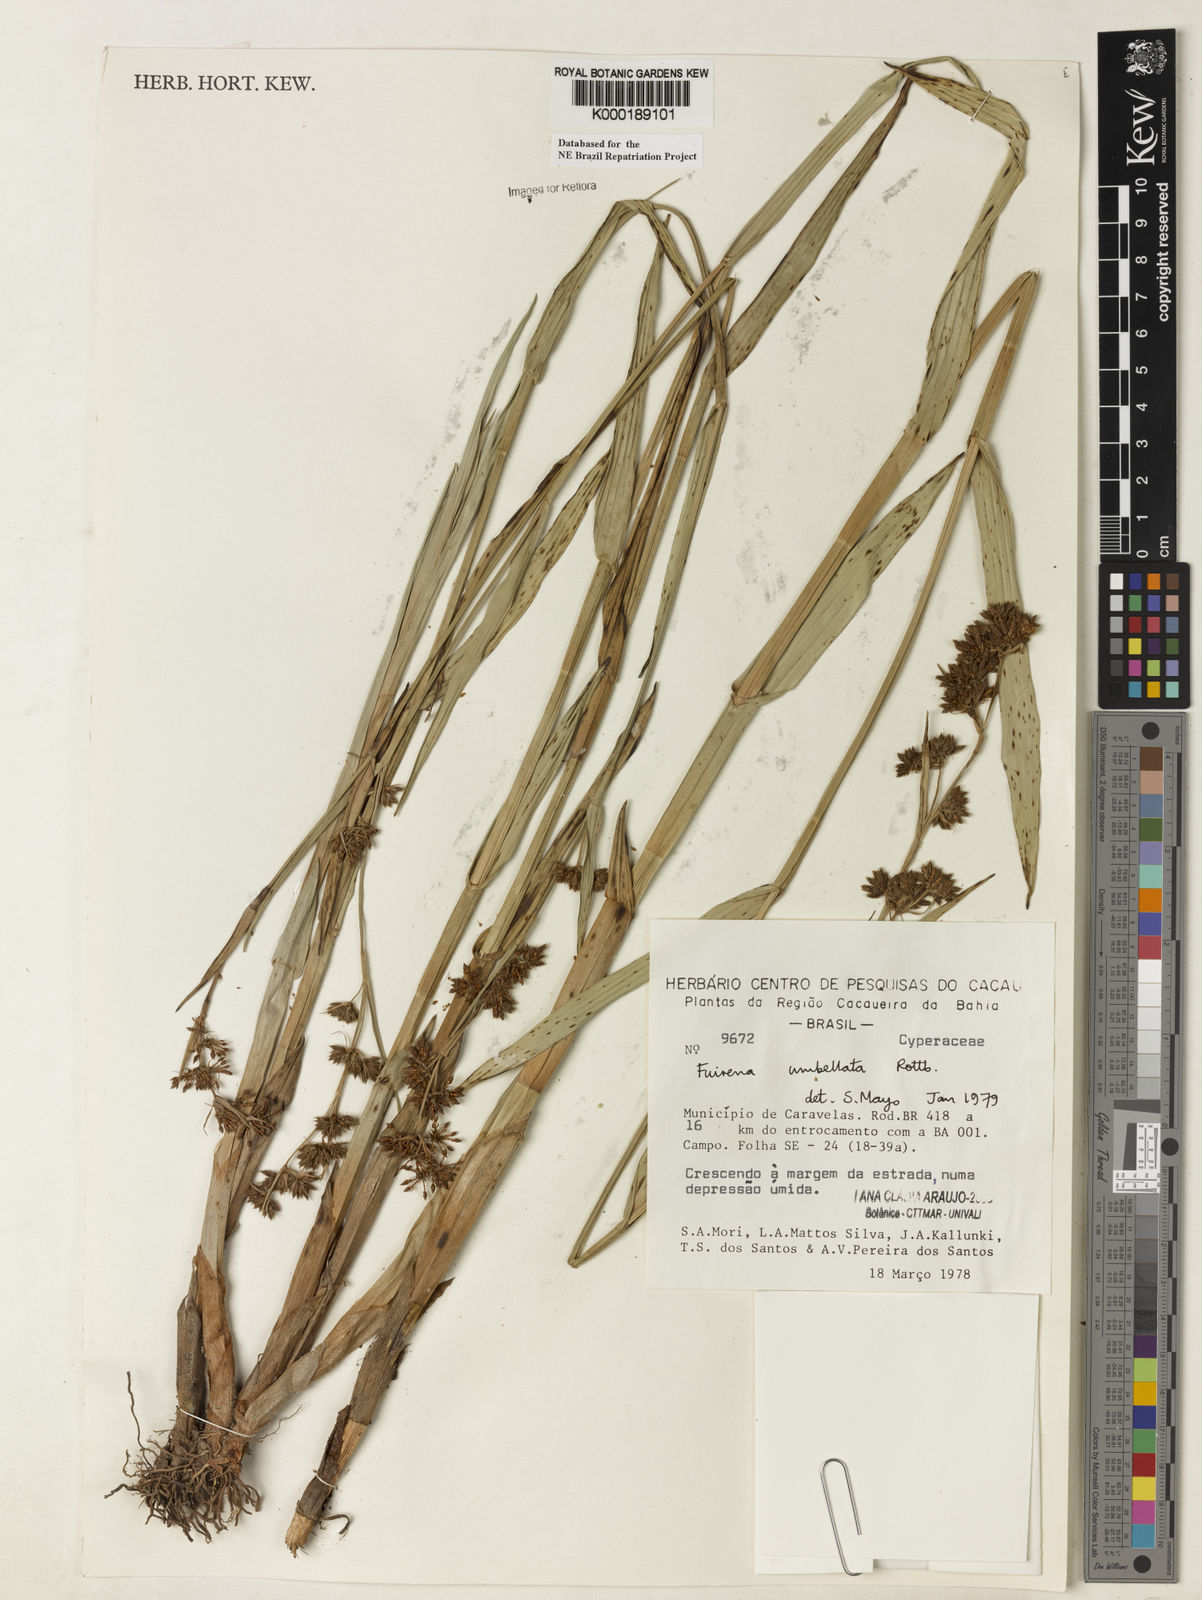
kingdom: Plantae
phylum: Tracheophyta
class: Liliopsida
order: Poales
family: Cyperaceae
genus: Fuirena
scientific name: Fuirena umbellata
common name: Yefen
